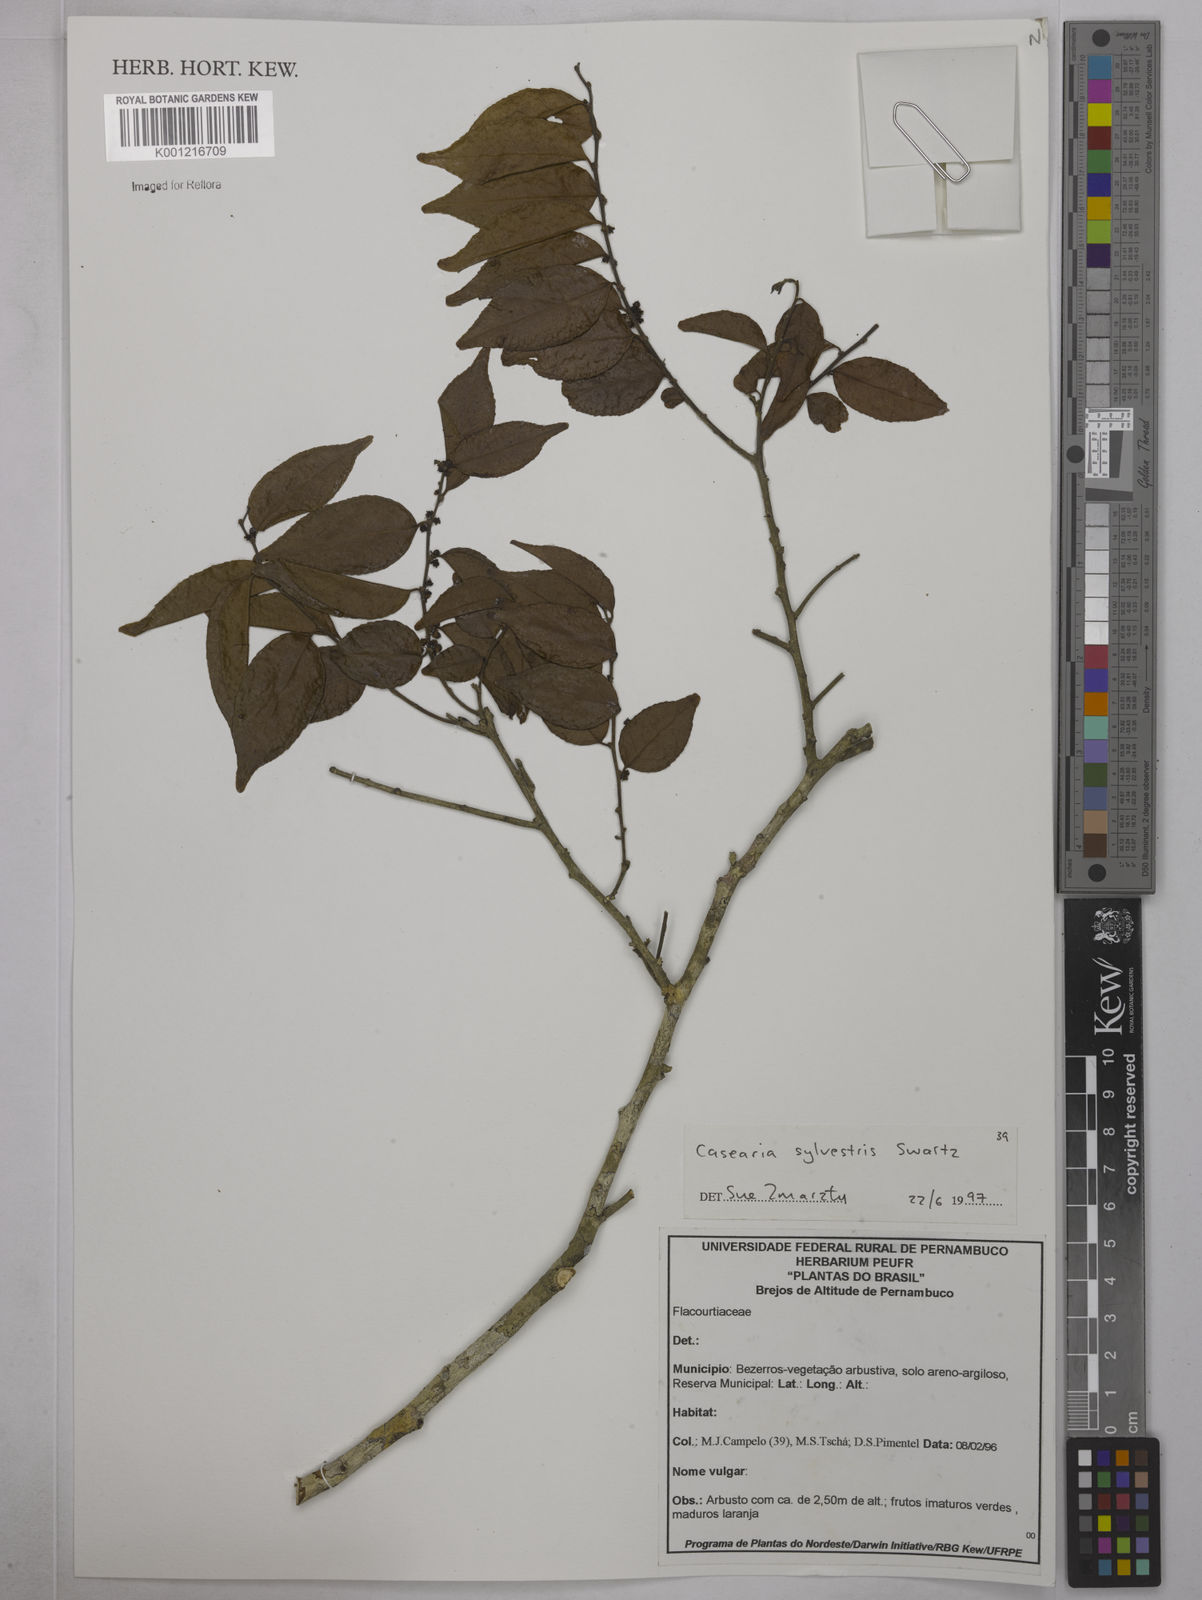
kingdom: Plantae
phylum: Tracheophyta
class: Magnoliopsida
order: Malpighiales
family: Salicaceae
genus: Casearia
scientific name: Casearia sylvestris
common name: Wild sage
